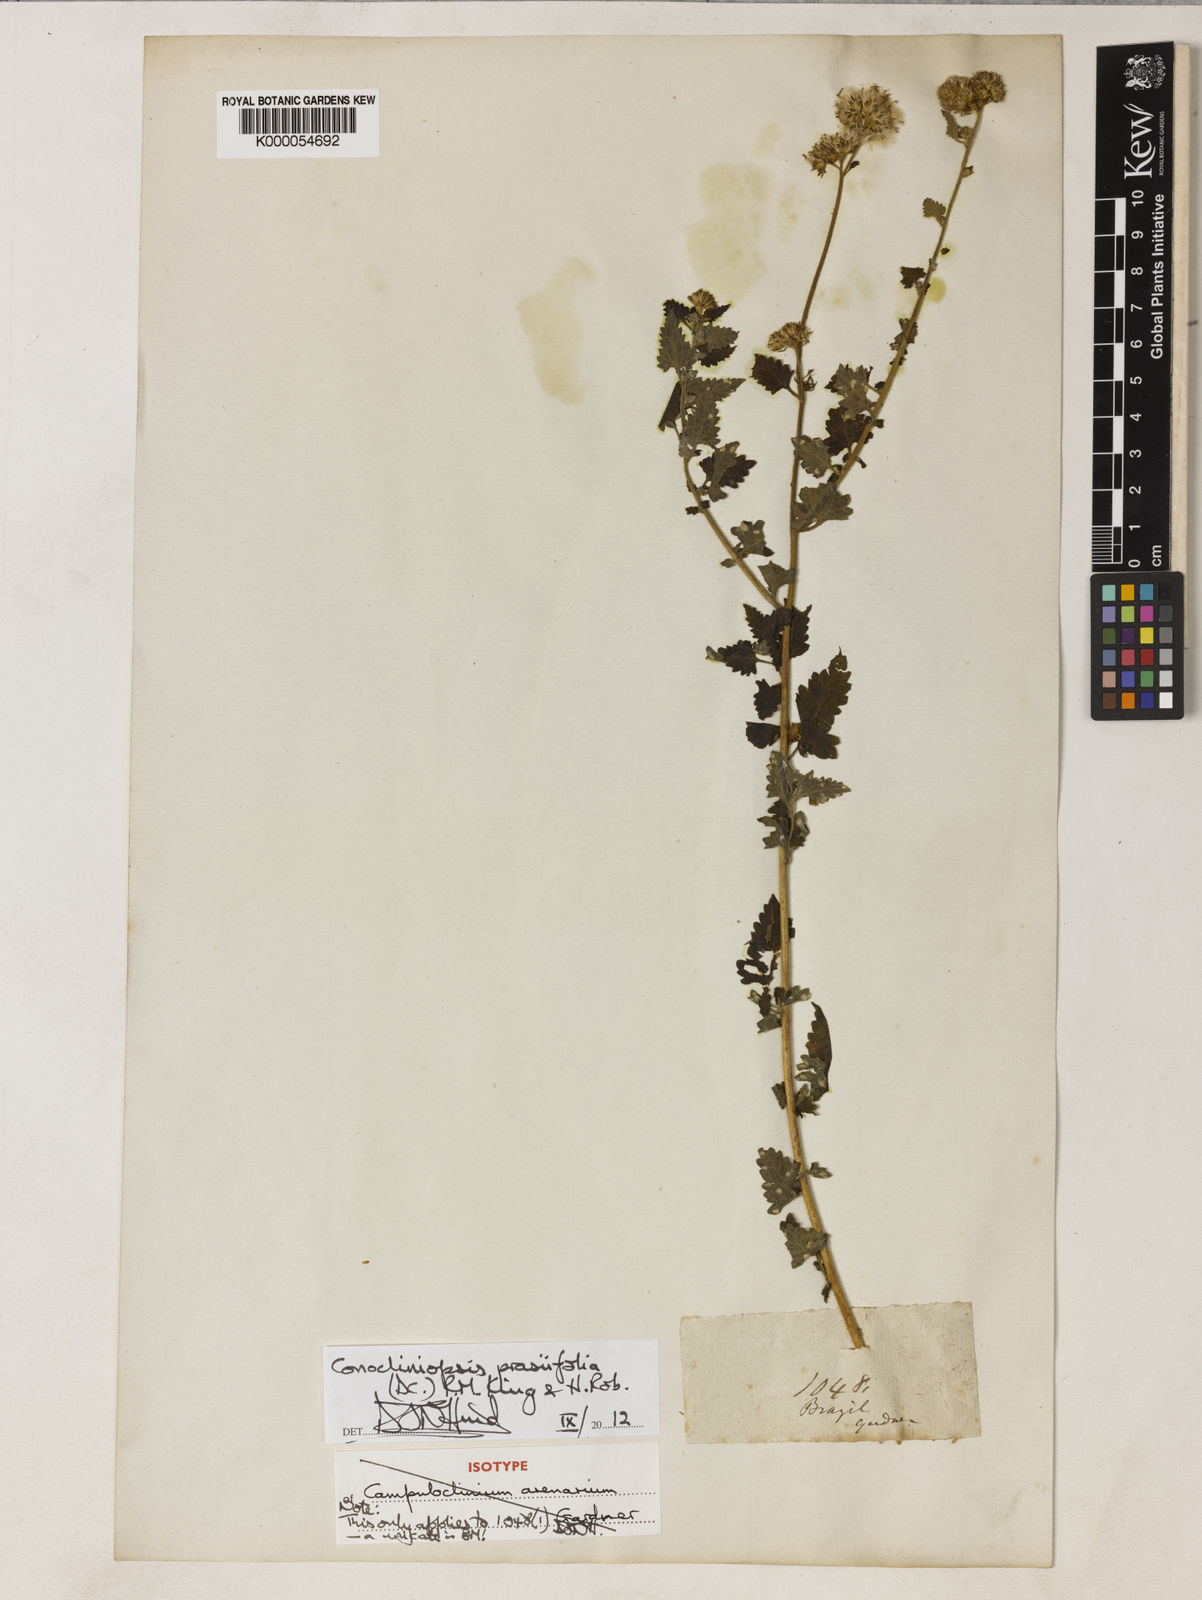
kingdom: Plantae
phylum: Tracheophyta
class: Magnoliopsida
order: Asterales
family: Asteraceae
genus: Conocliniopsis
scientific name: Conocliniopsis grossedentata
